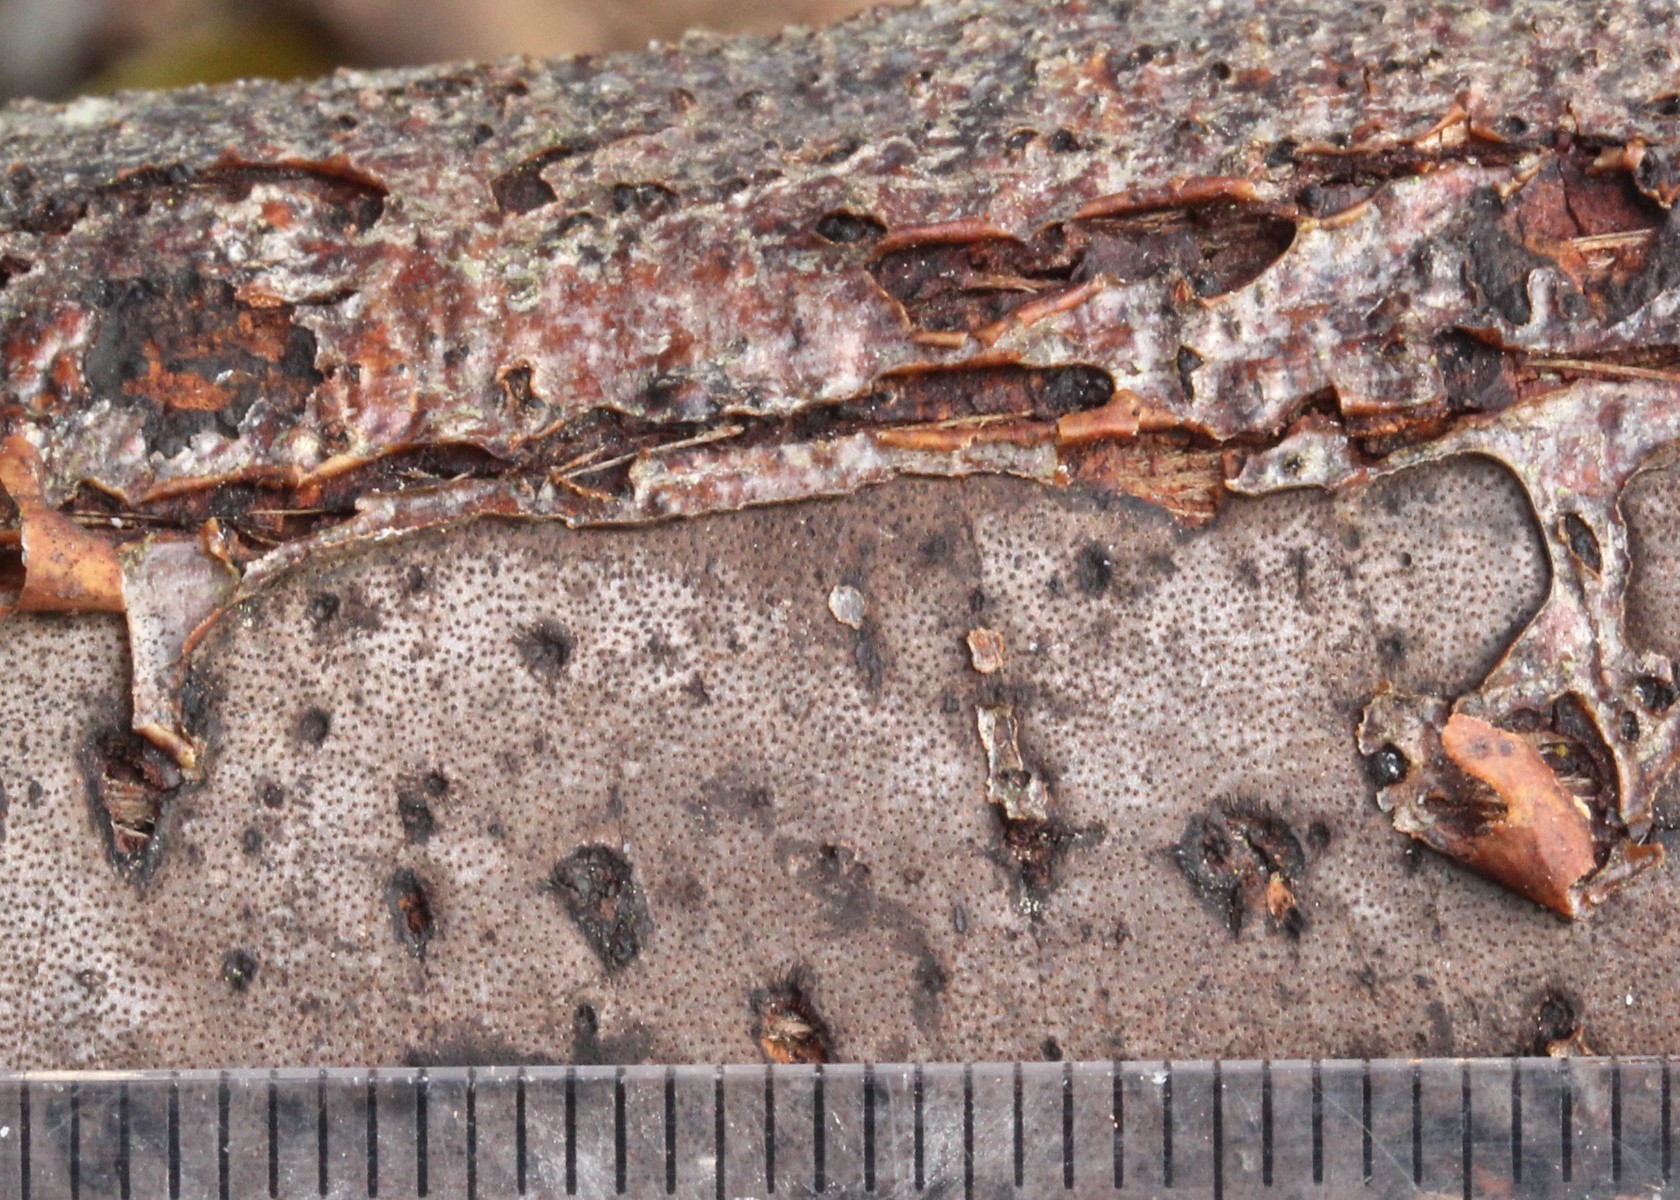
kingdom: Fungi
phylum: Ascomycota
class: Sordariomycetes
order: Xylariales
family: Diatrypaceae
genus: Diatrype
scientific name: Diatrype
